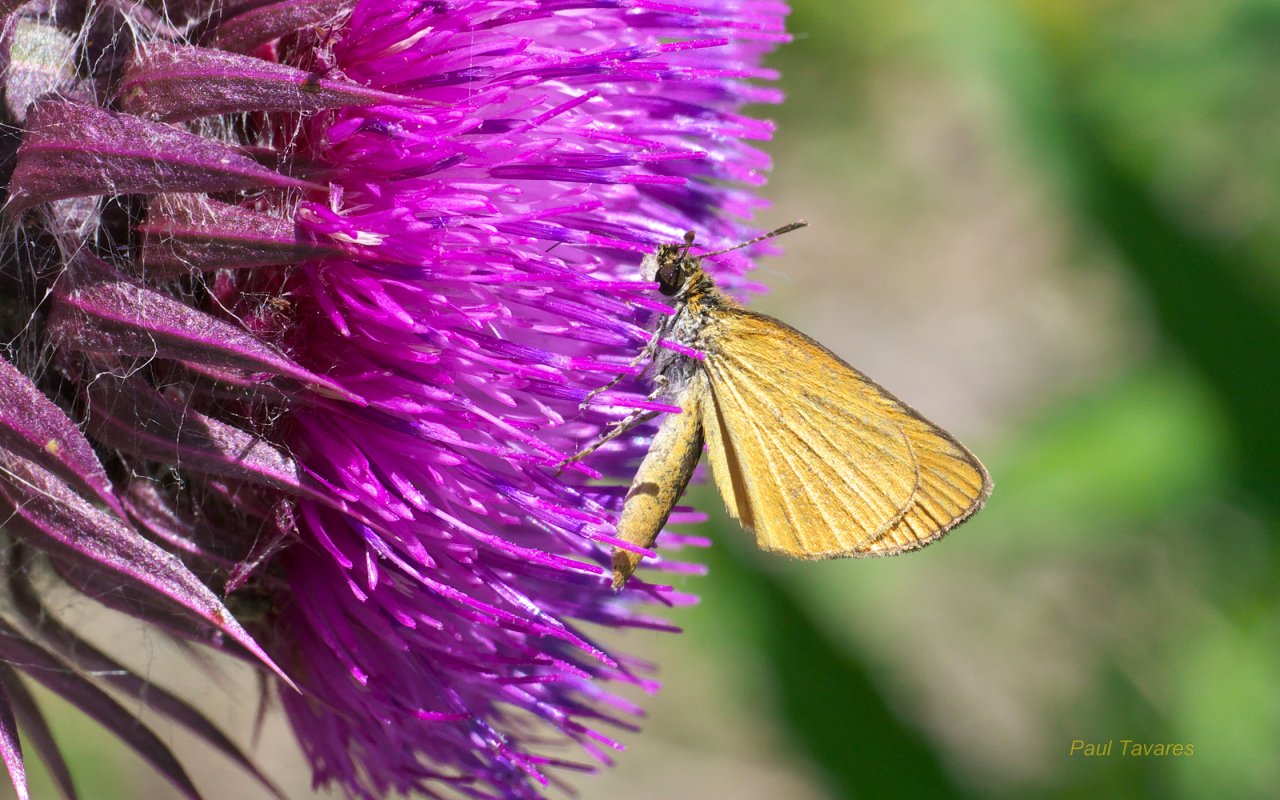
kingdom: Animalia
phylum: Arthropoda
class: Insecta
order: Lepidoptera
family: Hesperiidae
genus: Ancyloxypha
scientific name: Ancyloxypha numitor
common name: Least Skipper
